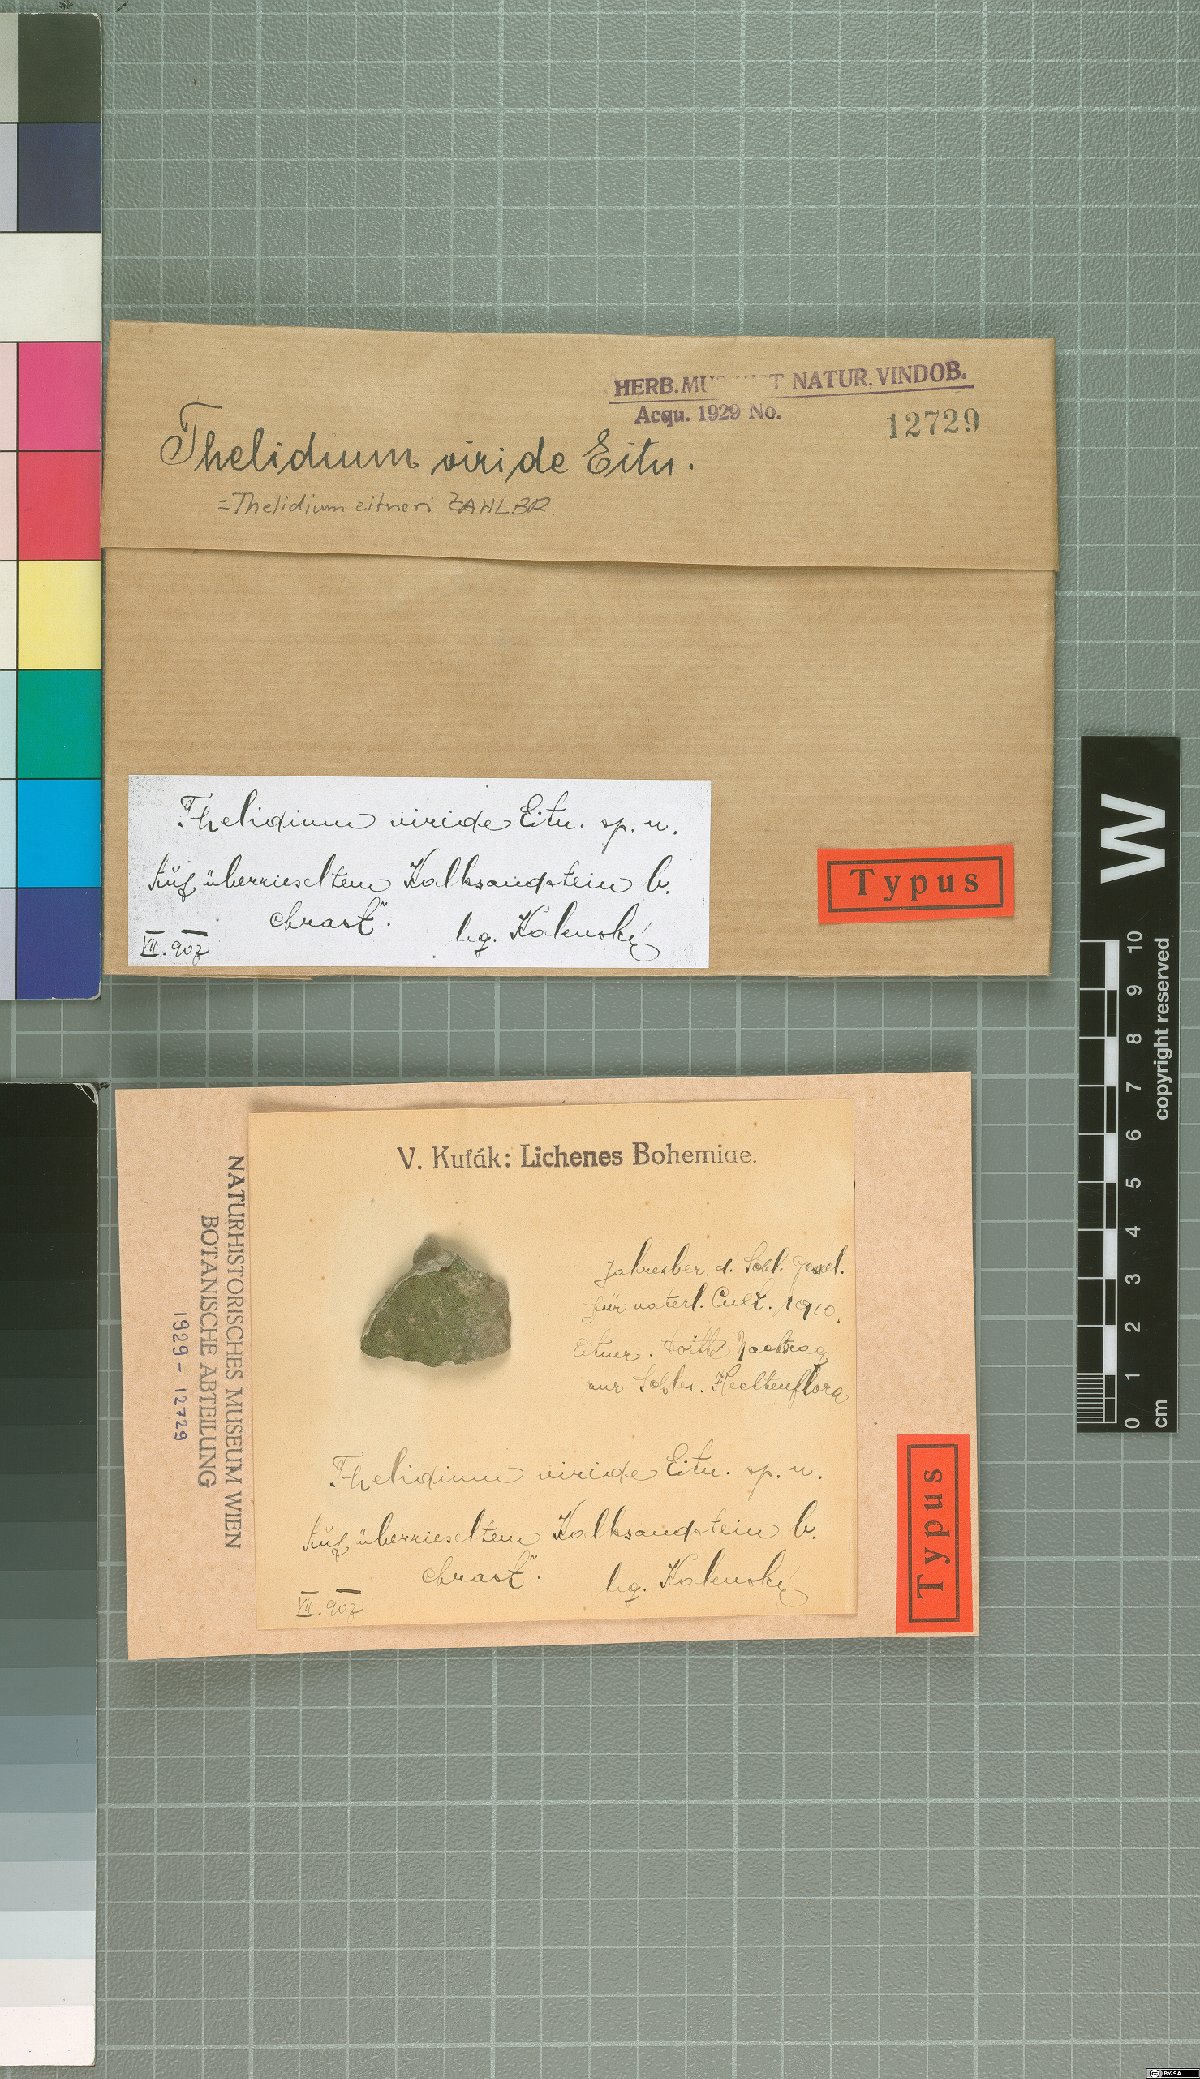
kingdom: Fungi
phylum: Ascomycota
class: Eurotiomycetes
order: Verrucariales
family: Verrucariaceae
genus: Thelidium
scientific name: Thelidium pyrenophorum
